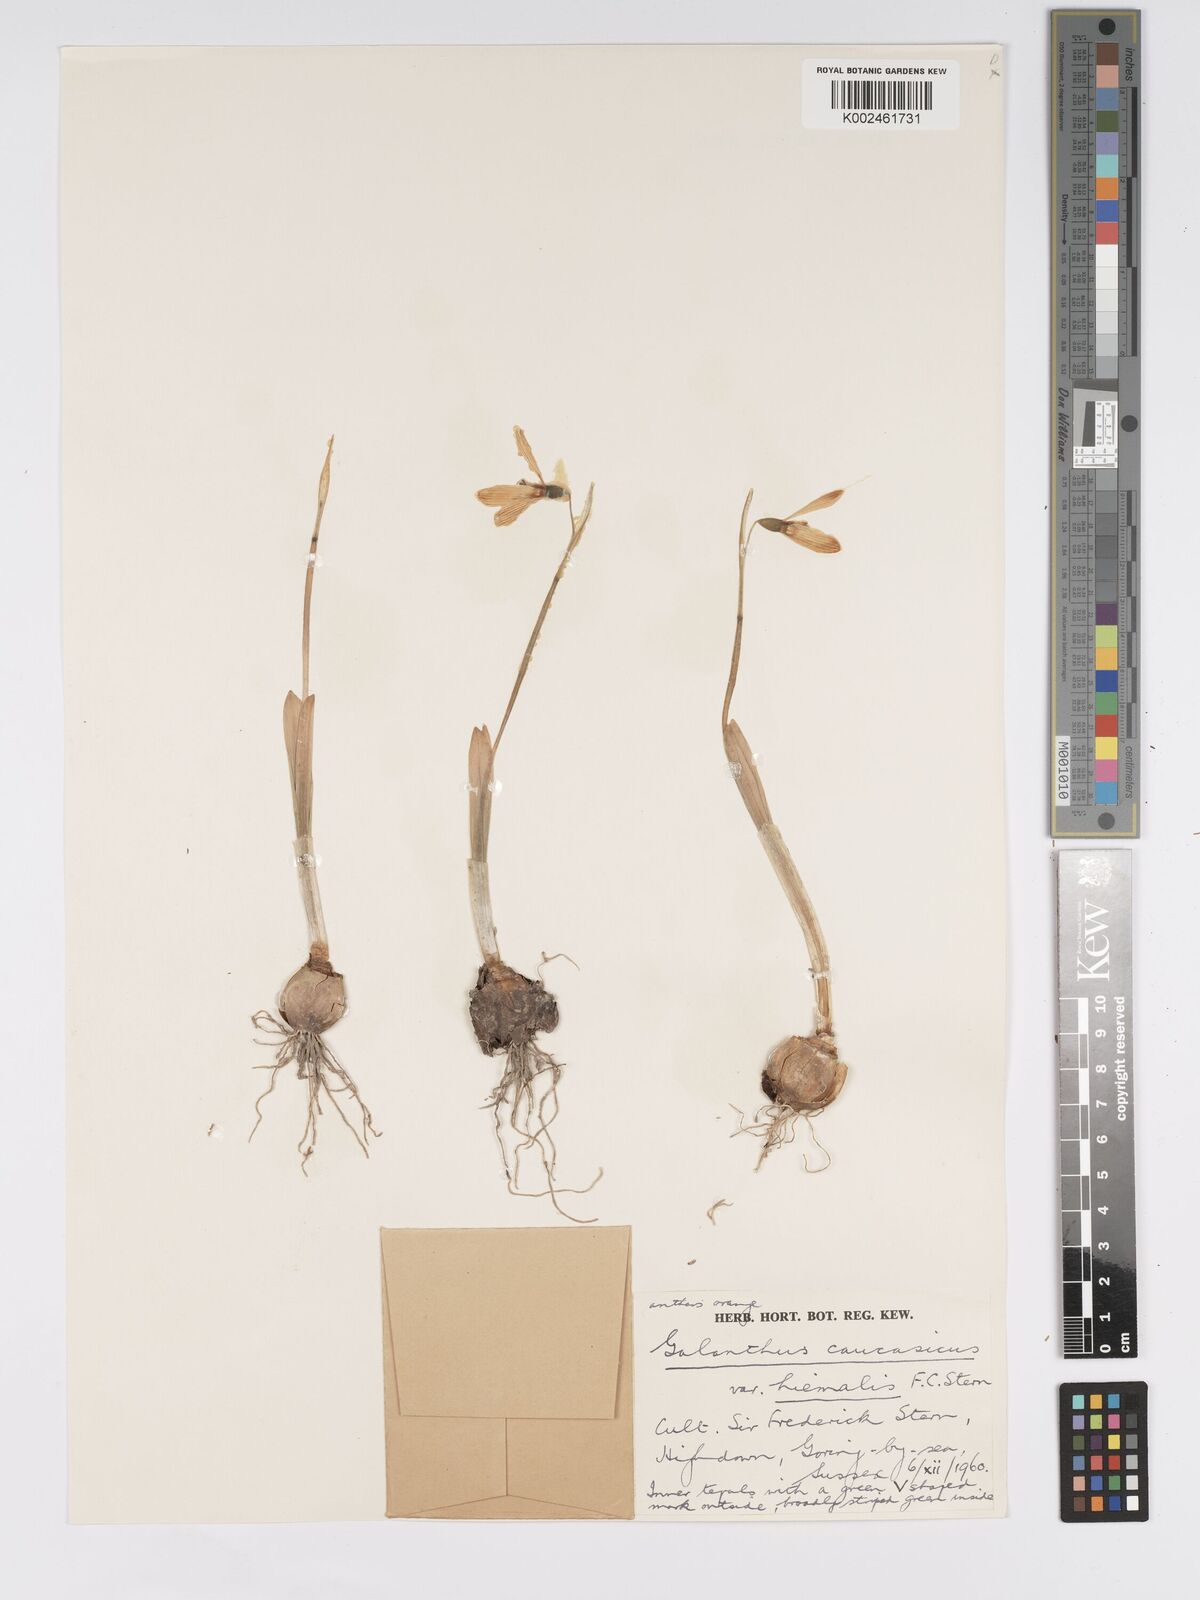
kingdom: Plantae
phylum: Tracheophyta
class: Liliopsida
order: Asparagales
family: Amaryllidaceae
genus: Galanthus
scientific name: Galanthus alpinus
